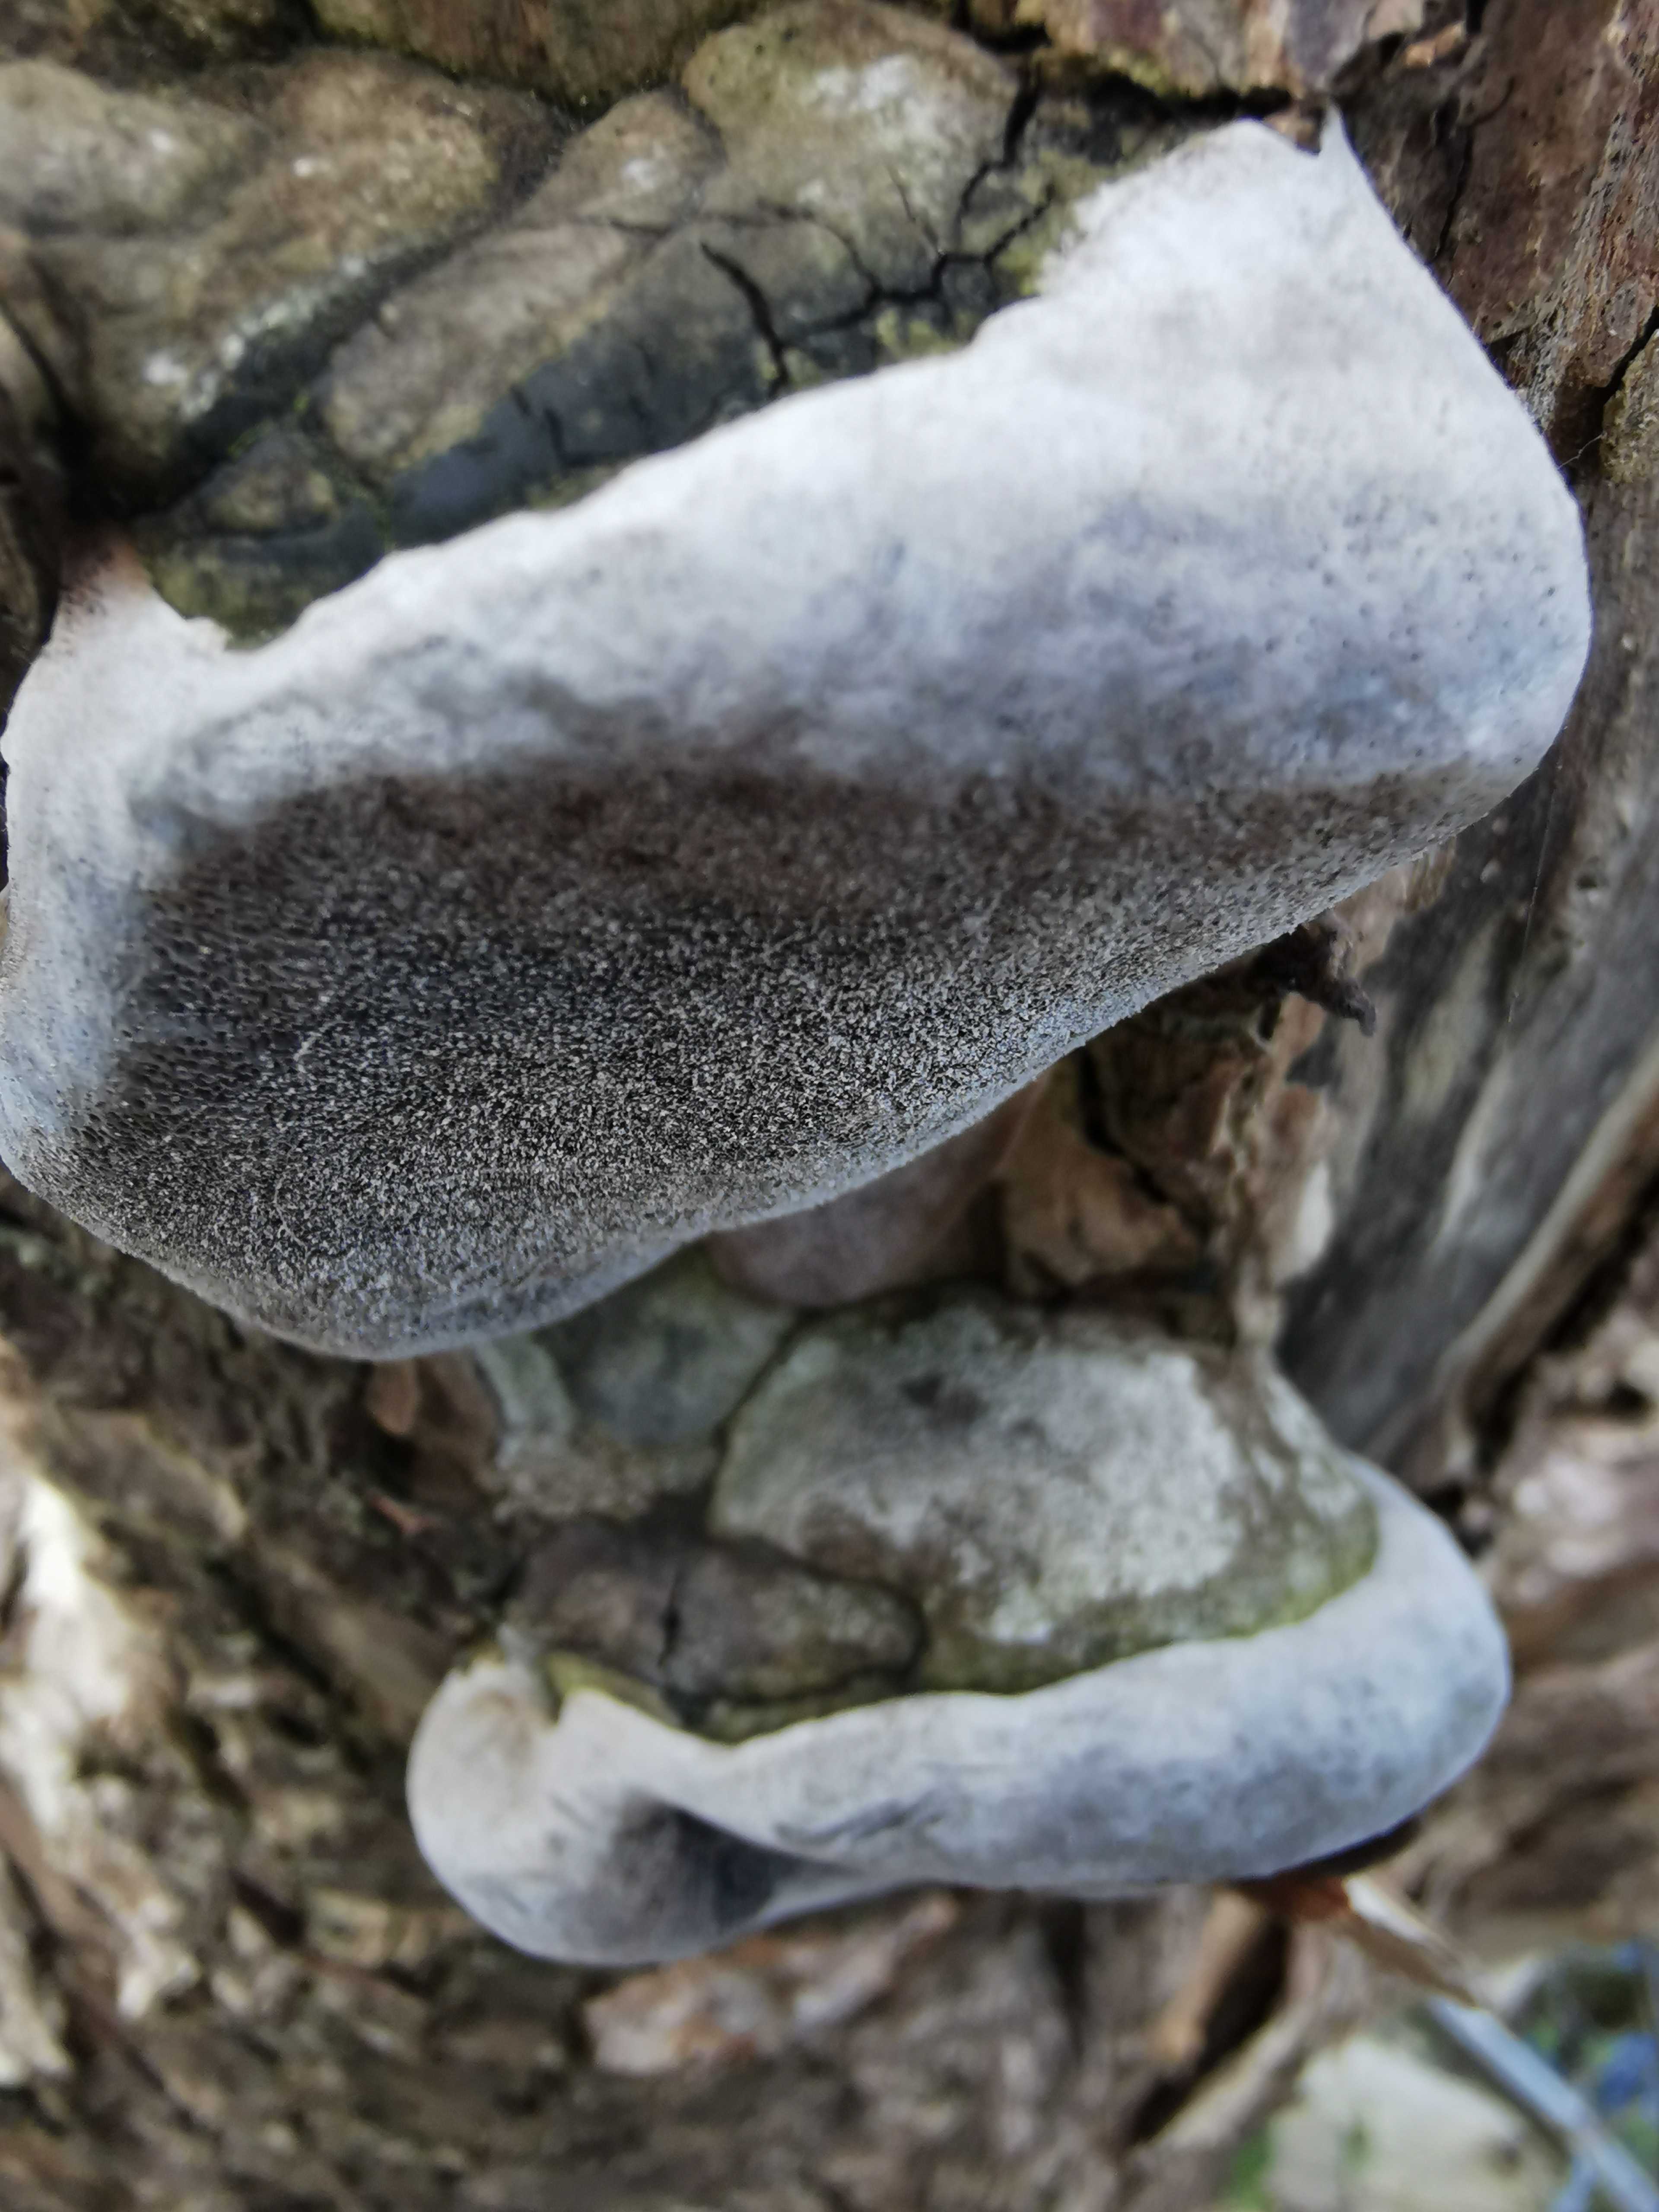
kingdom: Fungi
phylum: Basidiomycota
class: Agaricomycetes
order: Hymenochaetales
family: Hymenochaetaceae
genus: Phellinus
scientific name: Phellinus
